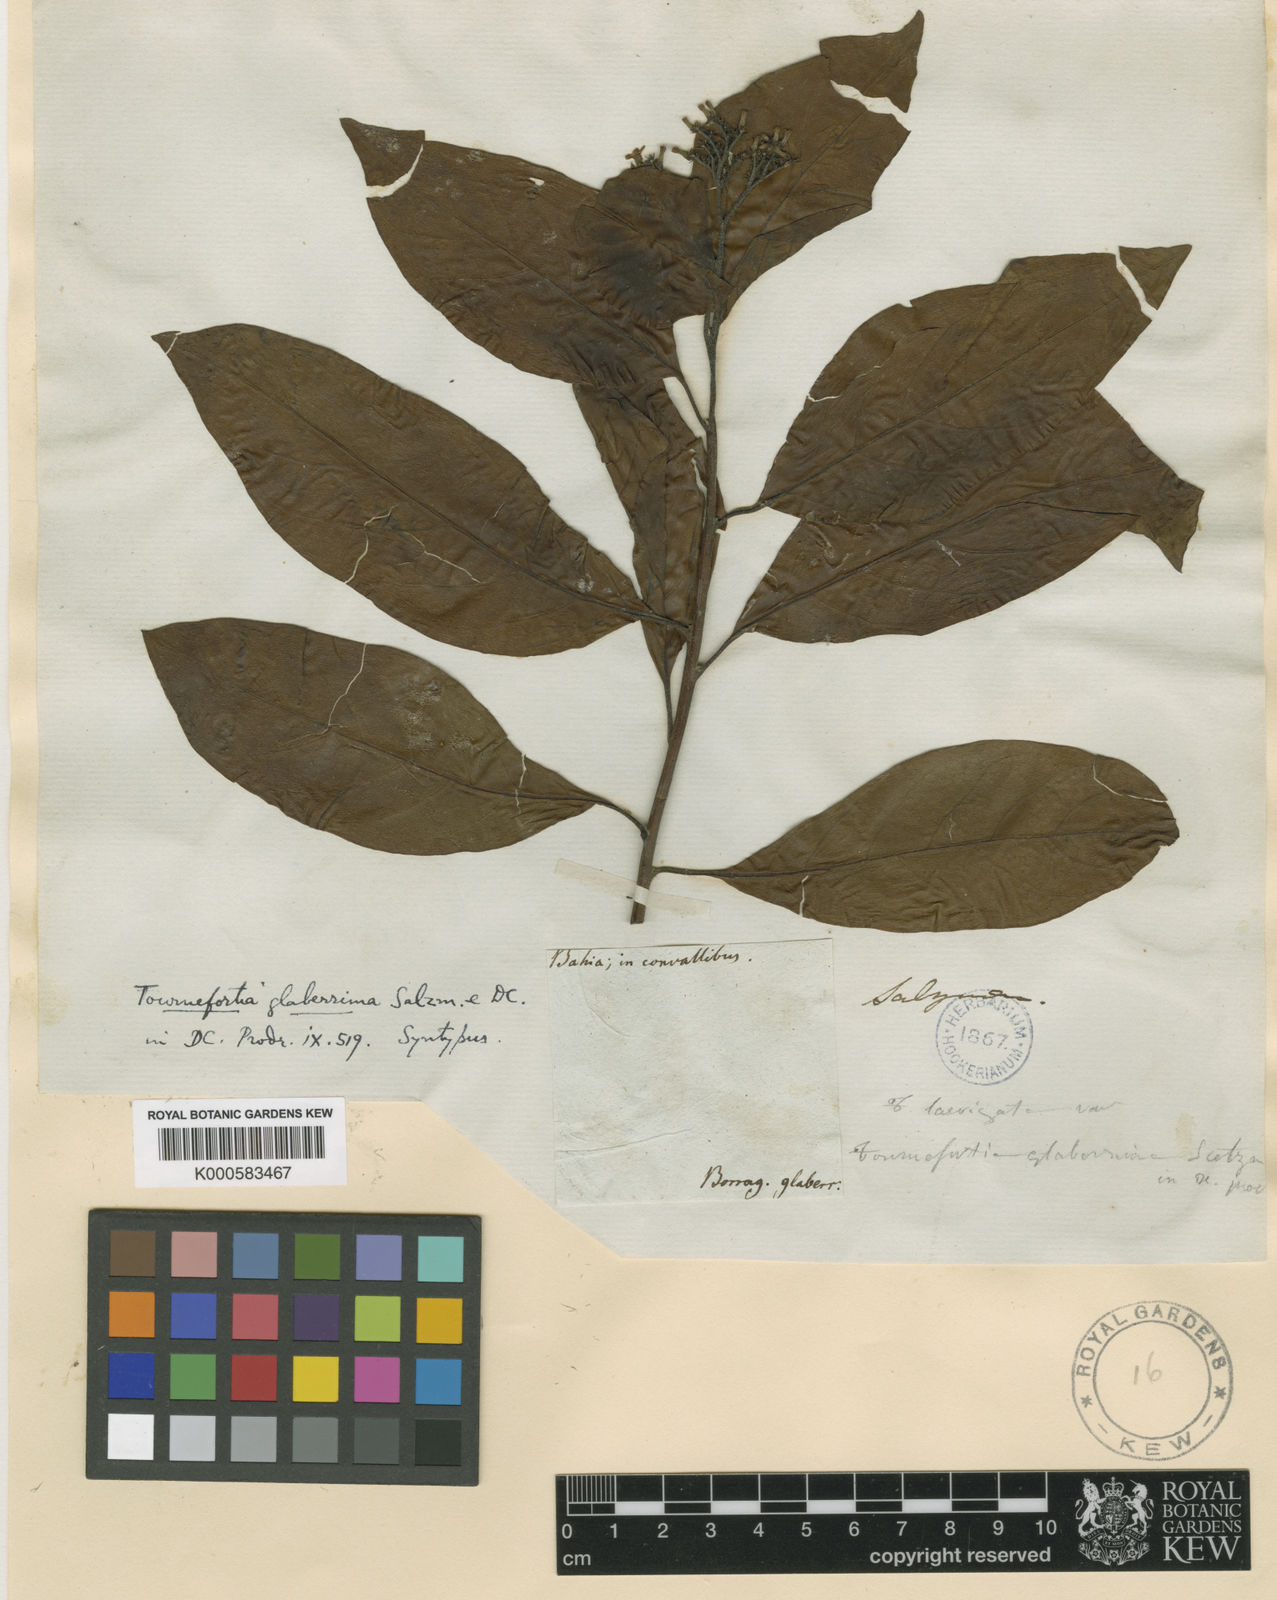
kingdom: Plantae
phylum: Tracheophyta
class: Magnoliopsida
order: Boraginales
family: Heliotropiaceae
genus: Tournefortia
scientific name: Tournefortia
